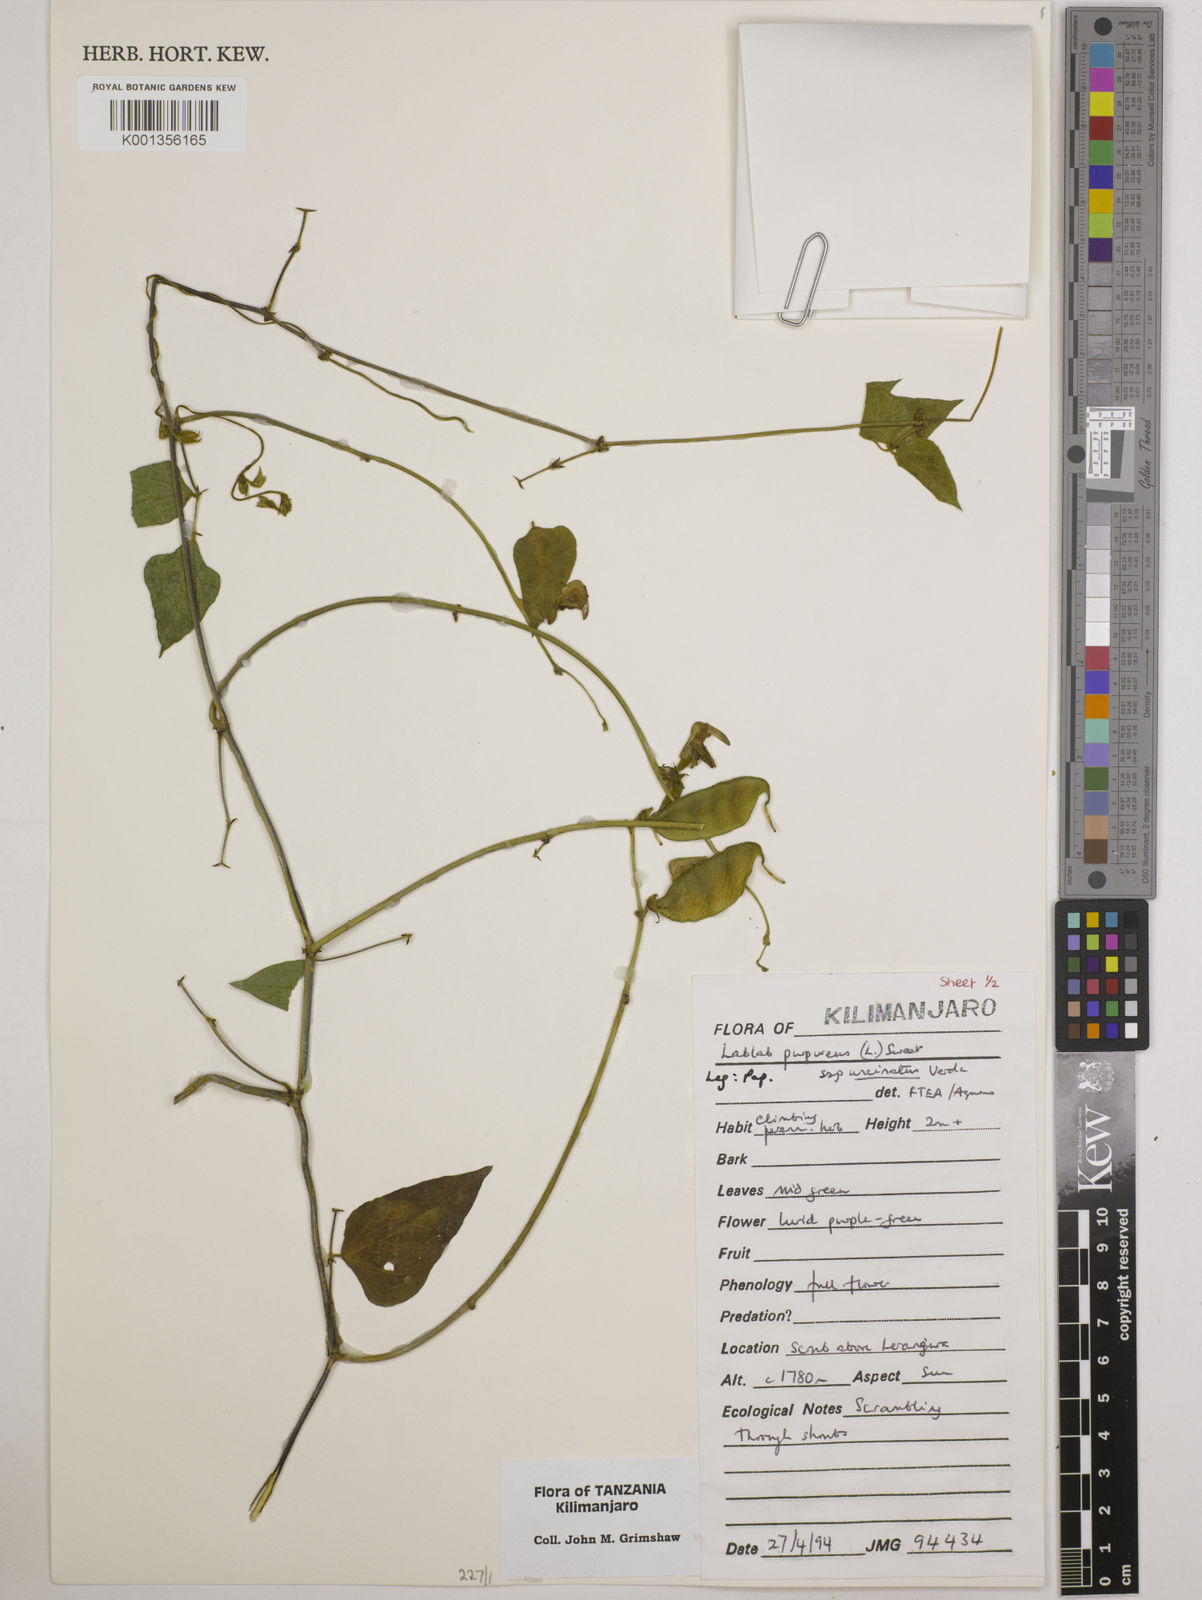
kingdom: Plantae
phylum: Tracheophyta
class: Magnoliopsida
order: Fabales
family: Fabaceae
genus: Lablab
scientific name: Lablab purpureus
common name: Lablab-bean
